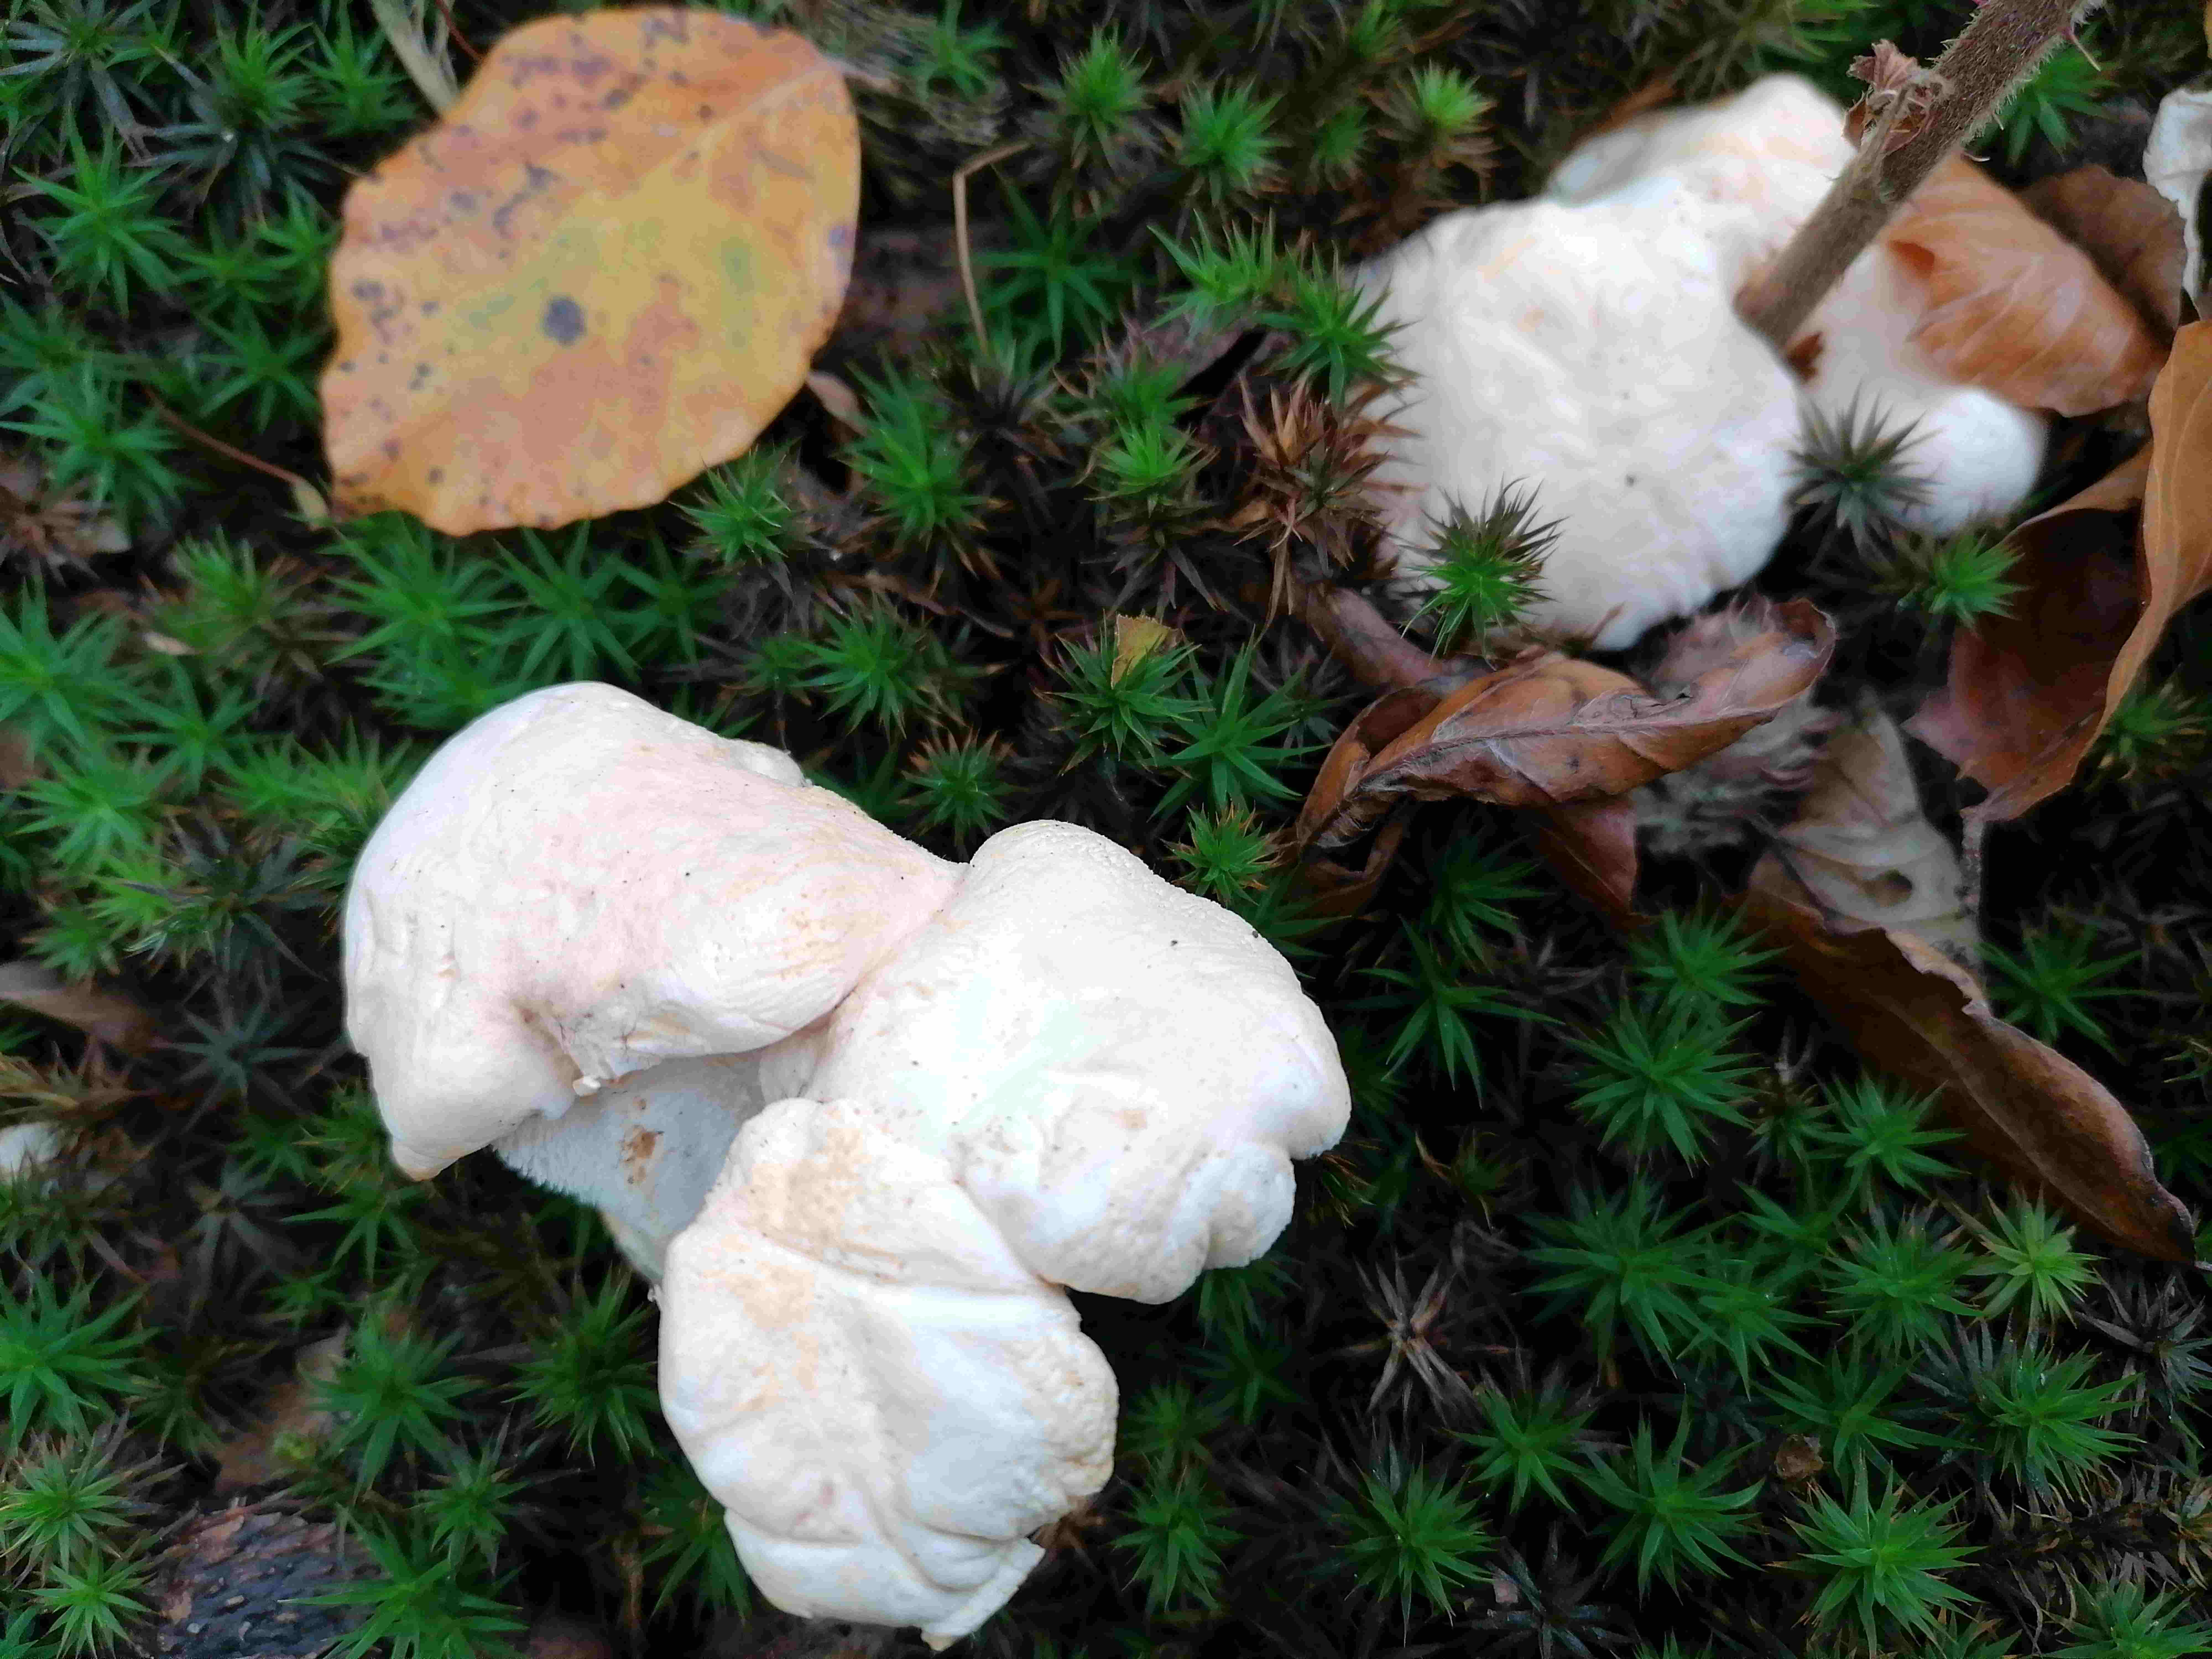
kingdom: Fungi
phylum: Basidiomycota
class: Agaricomycetes
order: Cantharellales
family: Hydnaceae
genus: Hydnum
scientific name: Hydnum repandum
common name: almindelig pigsvamp
